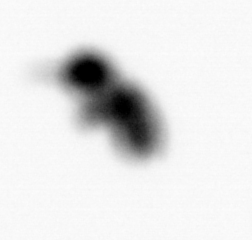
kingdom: Animalia
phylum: Arthropoda
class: Copepoda
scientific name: Copepoda
